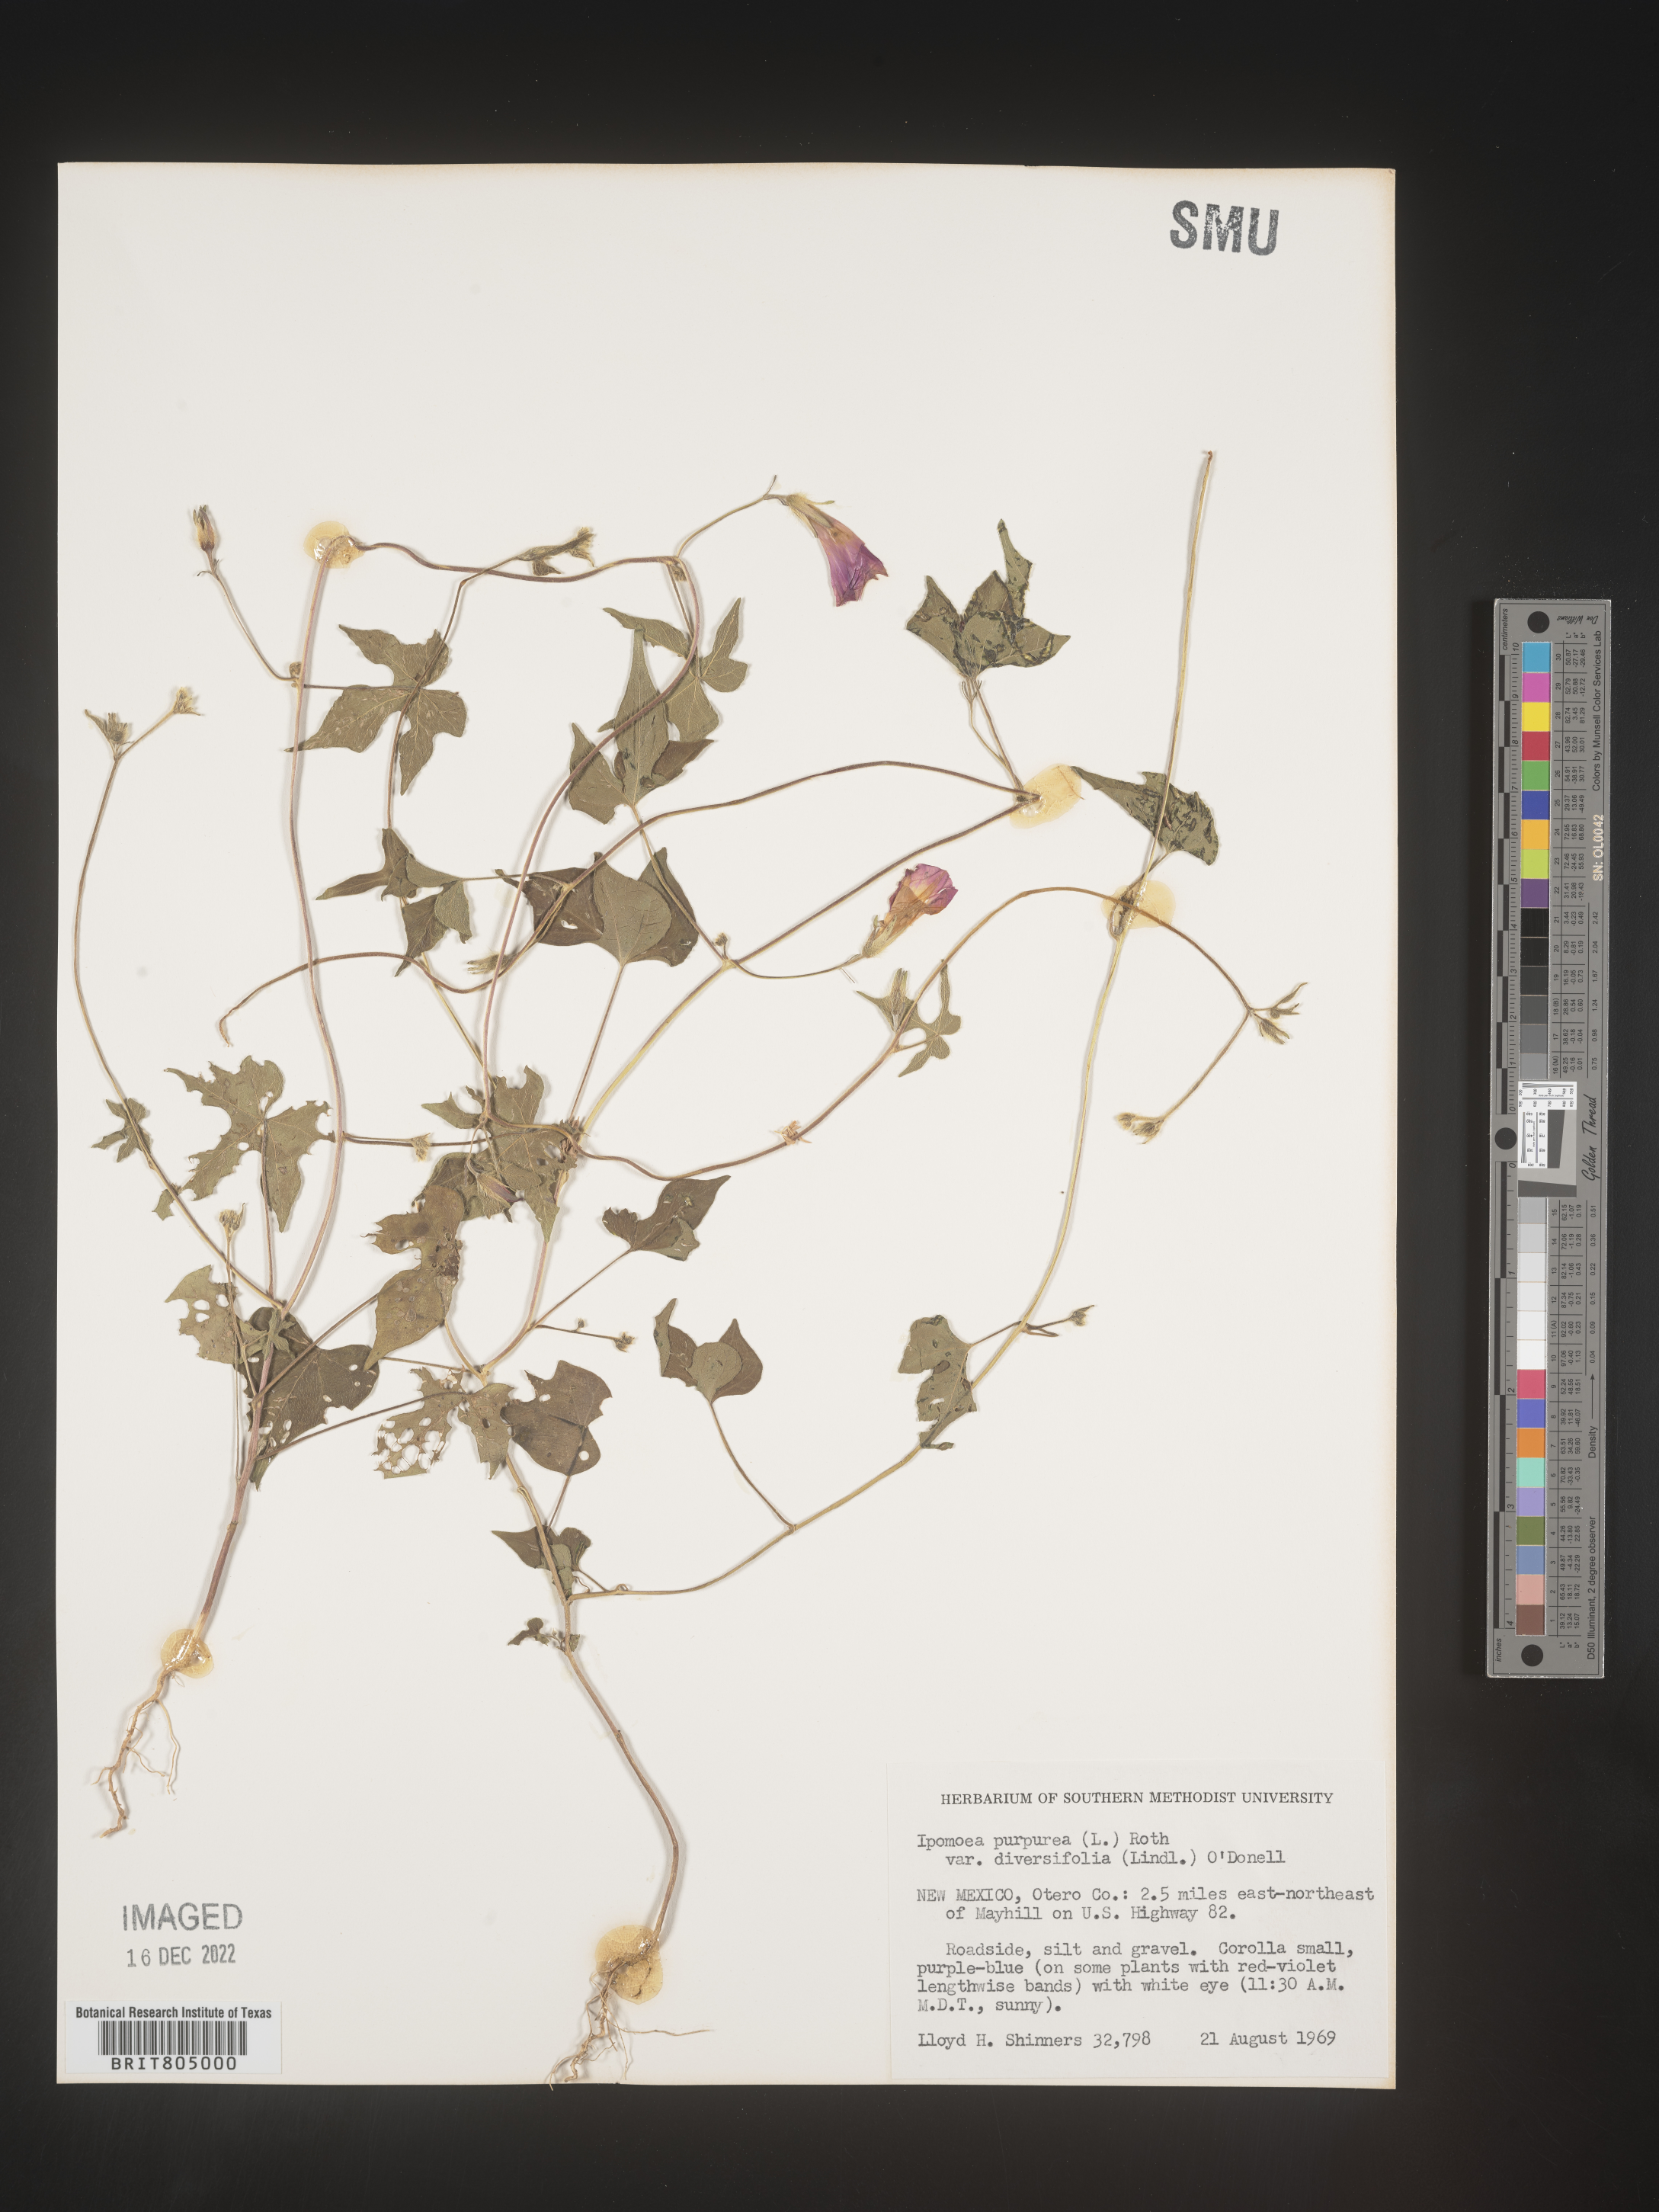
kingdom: Plantae
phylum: Tracheophyta
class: Magnoliopsida
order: Solanales
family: Convolvulaceae
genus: Ipomoea
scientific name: Ipomoea purpurea
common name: Common morning-glory
